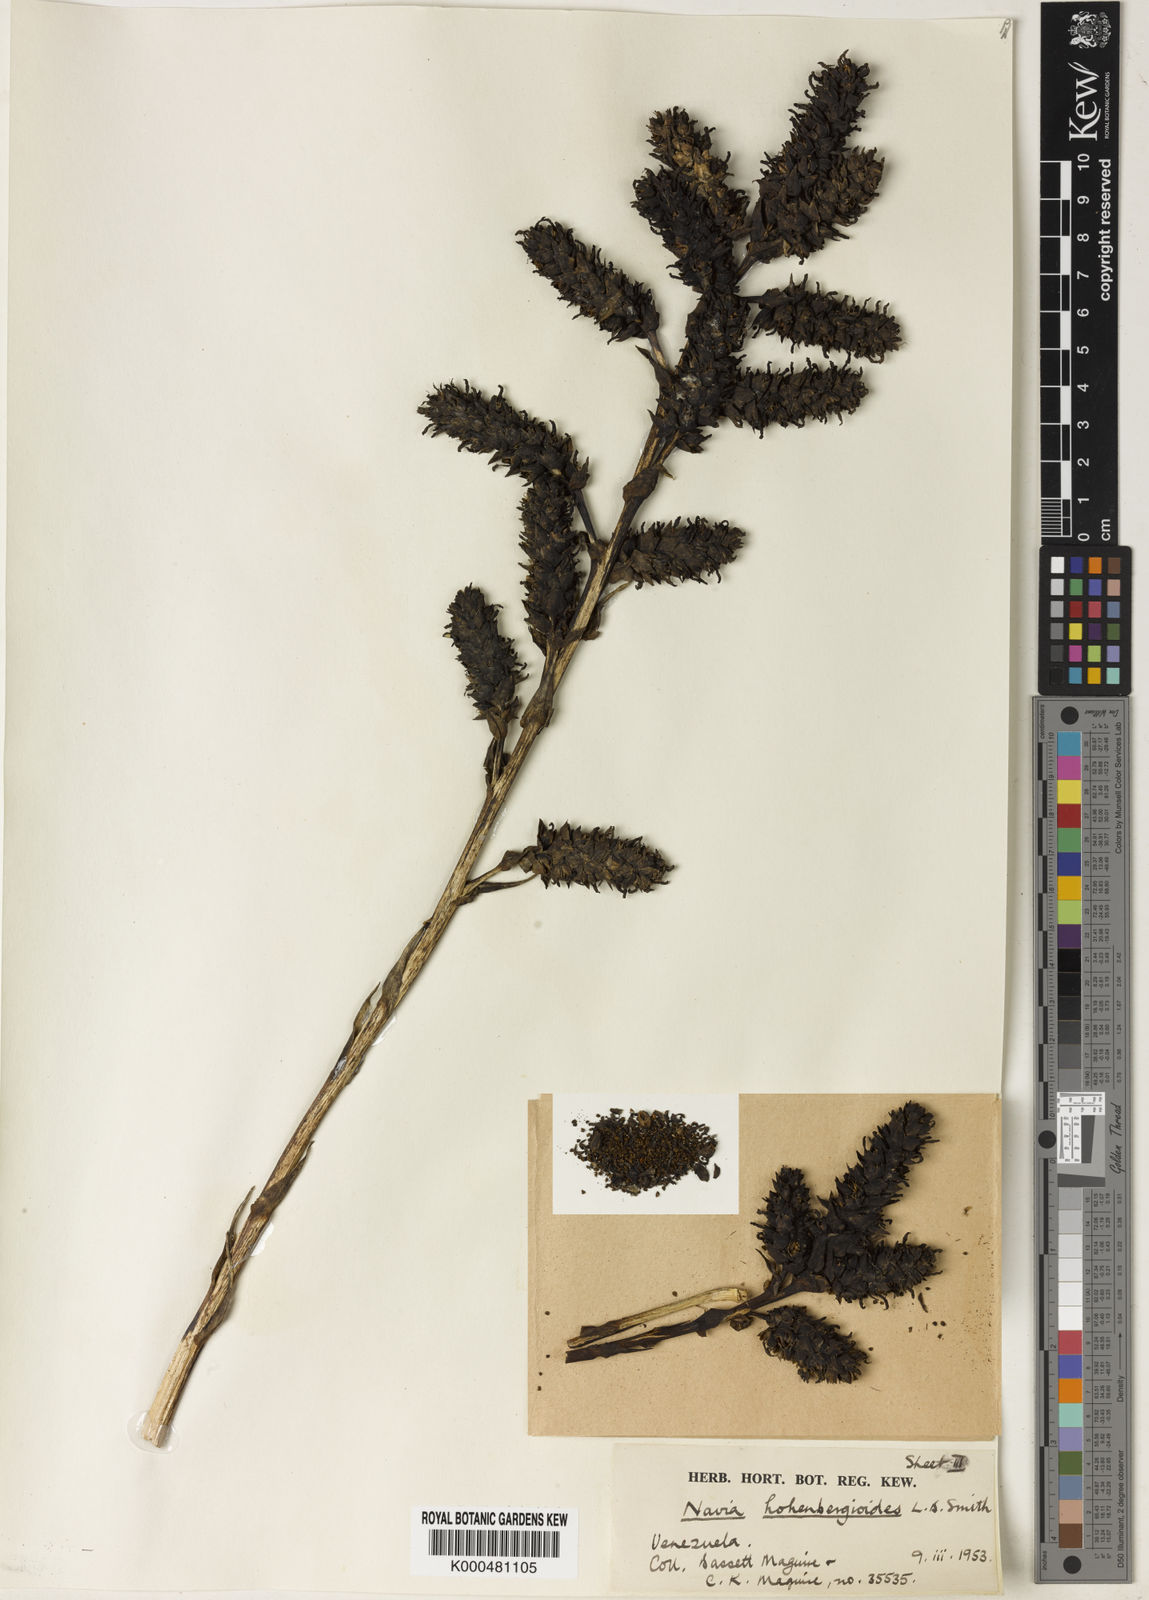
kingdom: Plantae
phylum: Tracheophyta
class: Liliopsida
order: Poales
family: Bromeliaceae
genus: Navia
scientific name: Navia hohenbergioides
